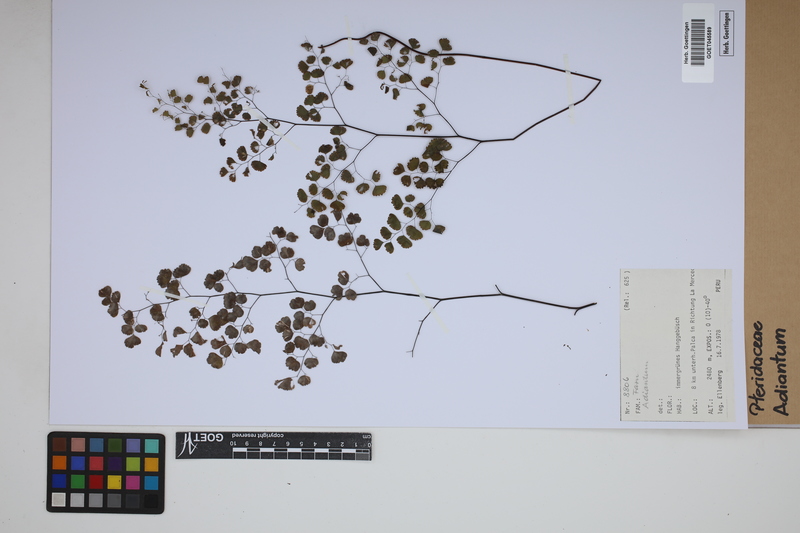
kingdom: Plantae
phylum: Tracheophyta
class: Polypodiopsida
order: Polypodiales
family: Pteridaceae
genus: Adiantum
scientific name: Adiantum
